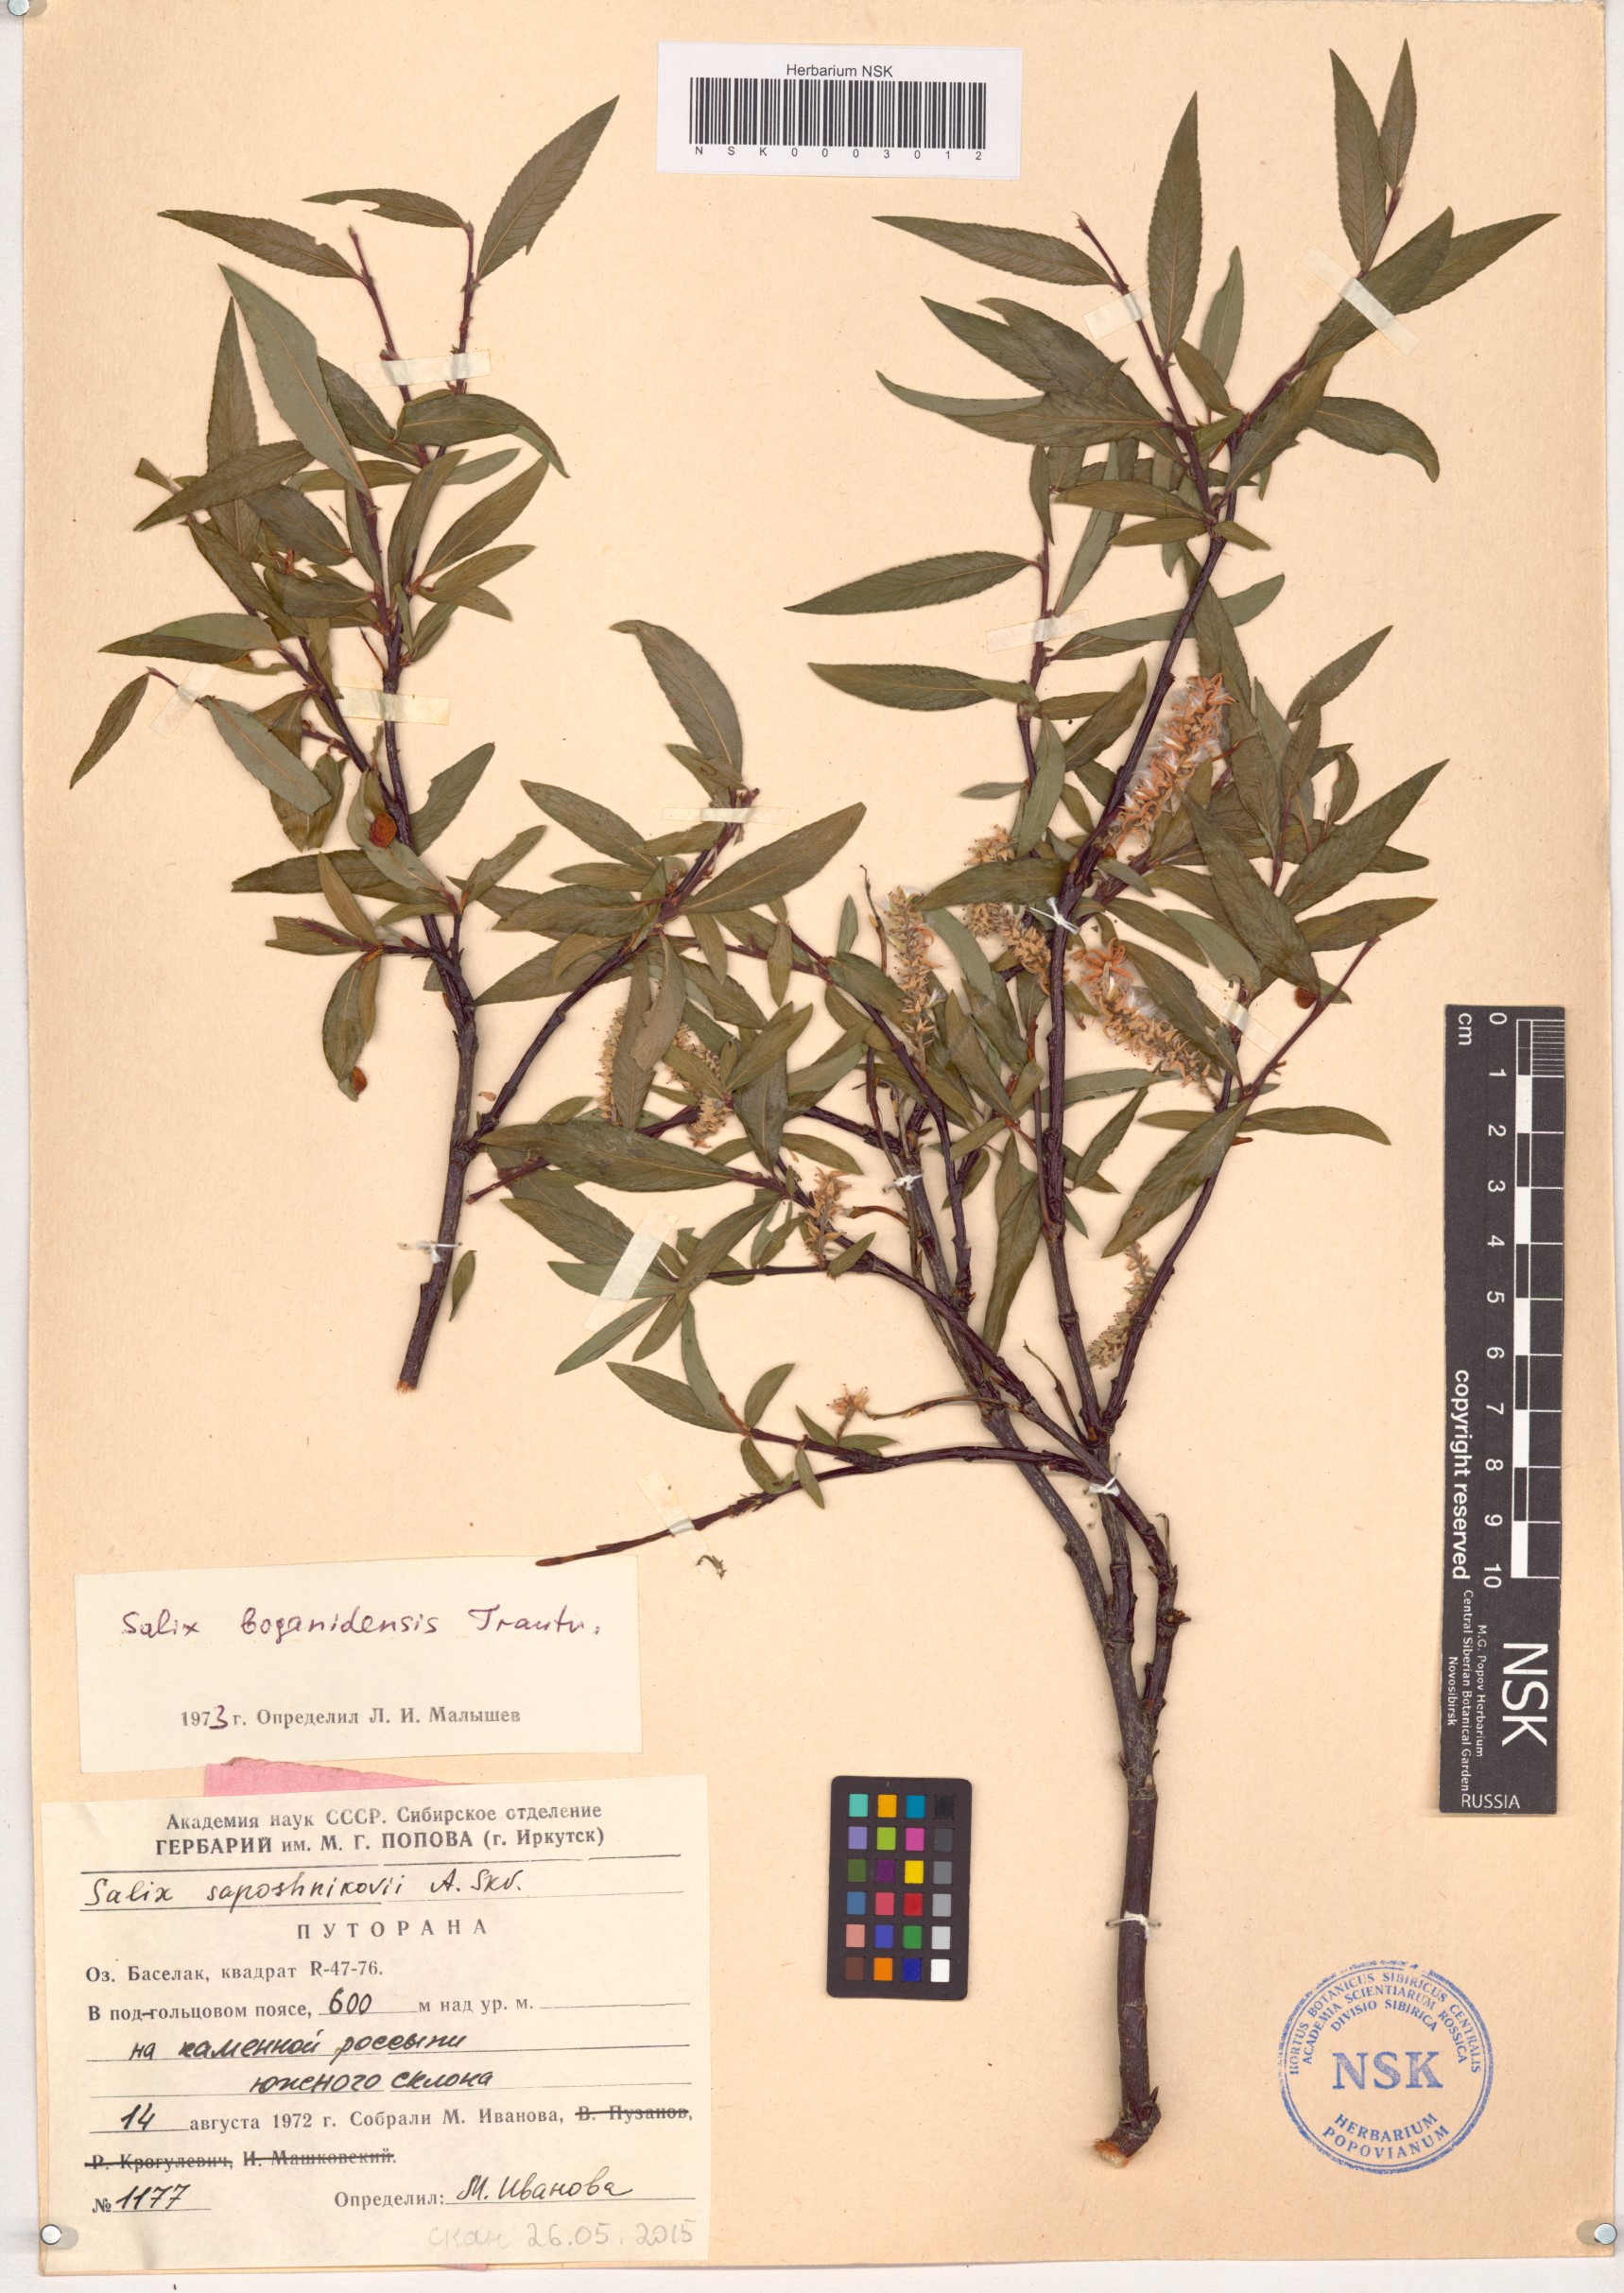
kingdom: Plantae
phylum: Tracheophyta
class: Magnoliopsida
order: Malpighiales
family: Salicaceae
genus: Salix
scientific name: Salix boganidensis
